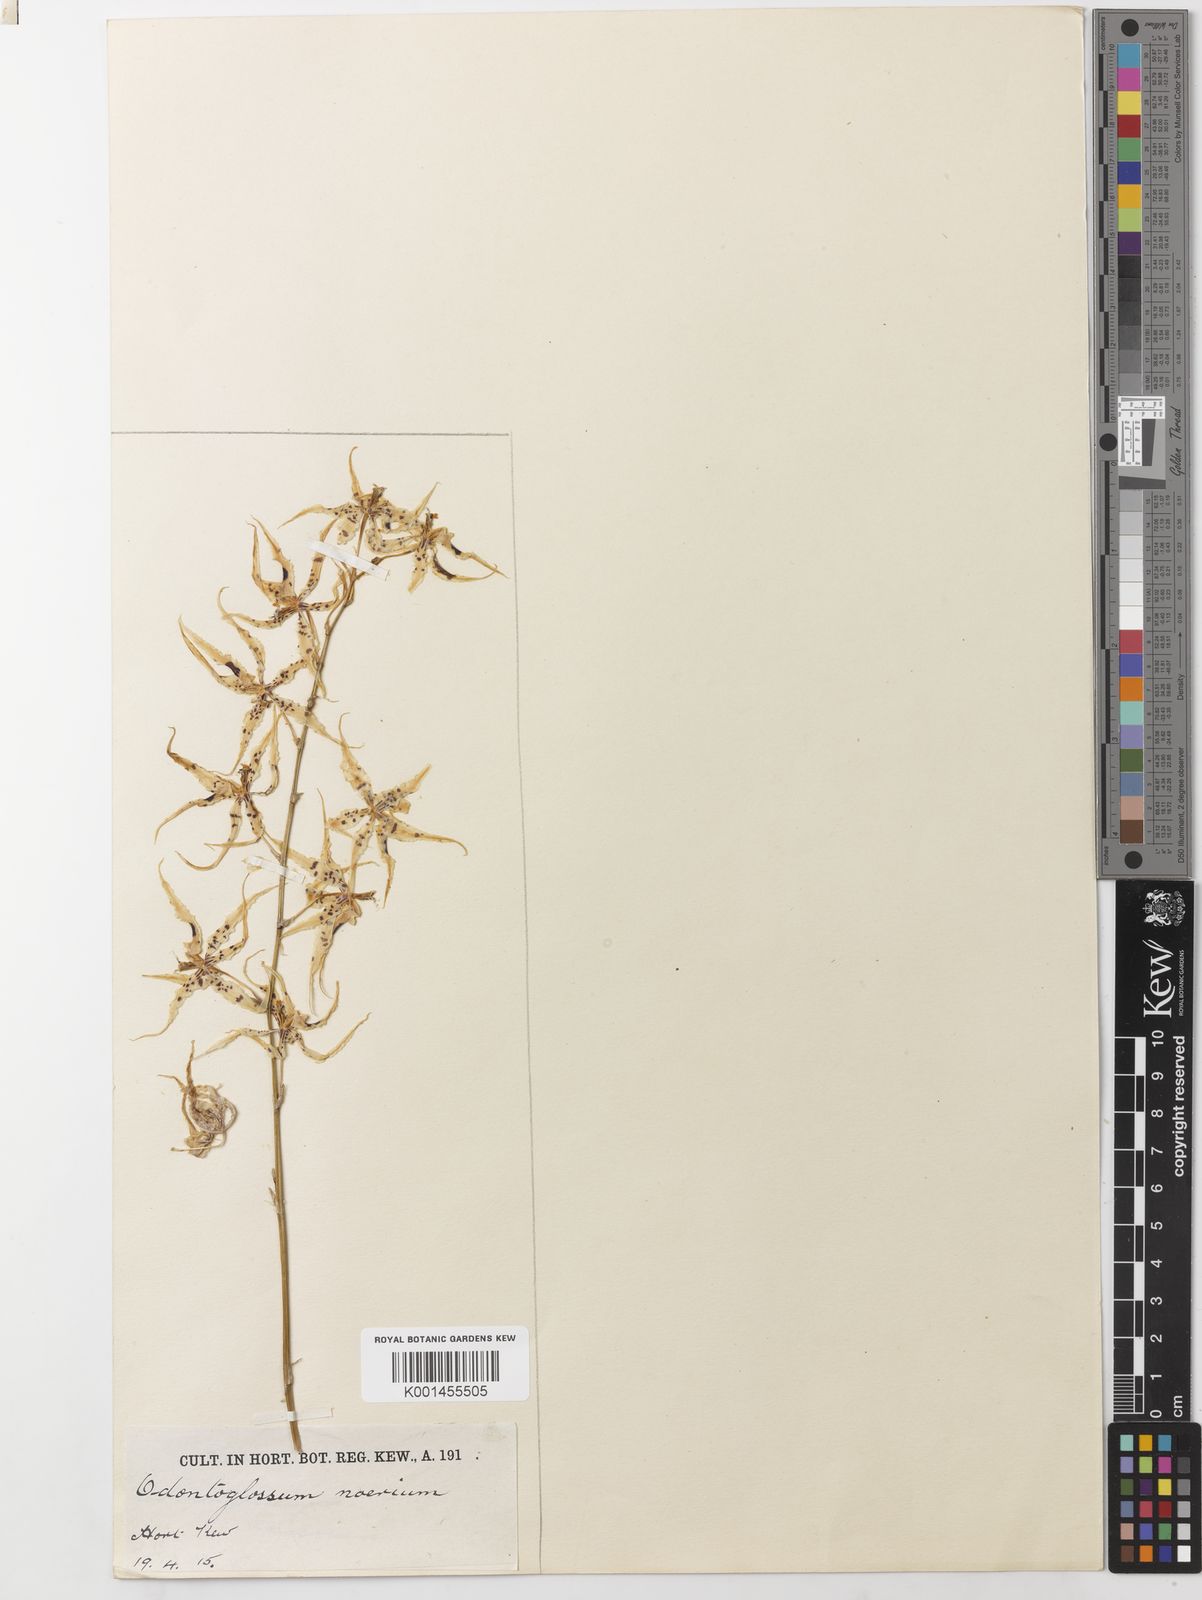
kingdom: Plantae
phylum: Tracheophyta
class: Liliopsida
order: Asparagales
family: Orchidaceae
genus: Oncidium
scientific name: Oncidium naevium
